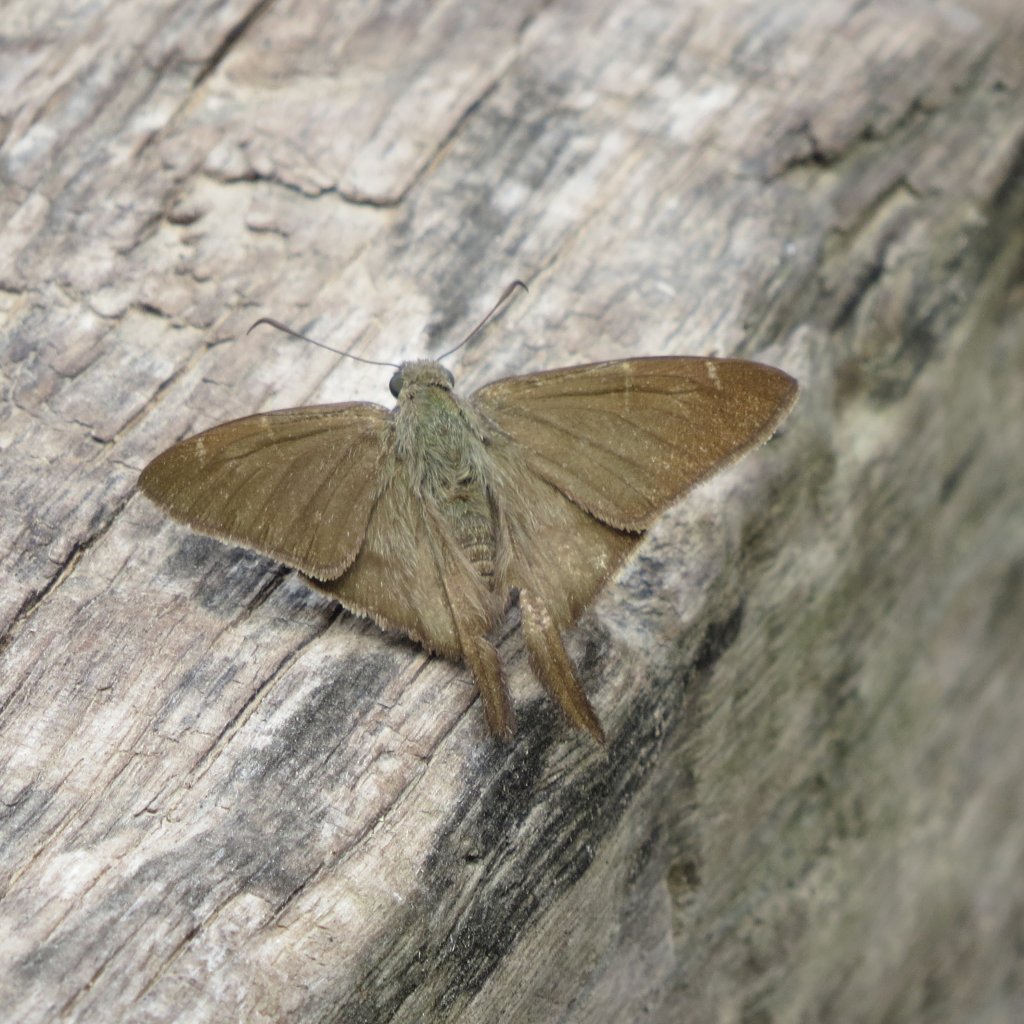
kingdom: Animalia
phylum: Arthropoda
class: Insecta
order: Lepidoptera
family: Hesperiidae
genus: Urbanus
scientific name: Urbanus procne
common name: Brown Longtail
